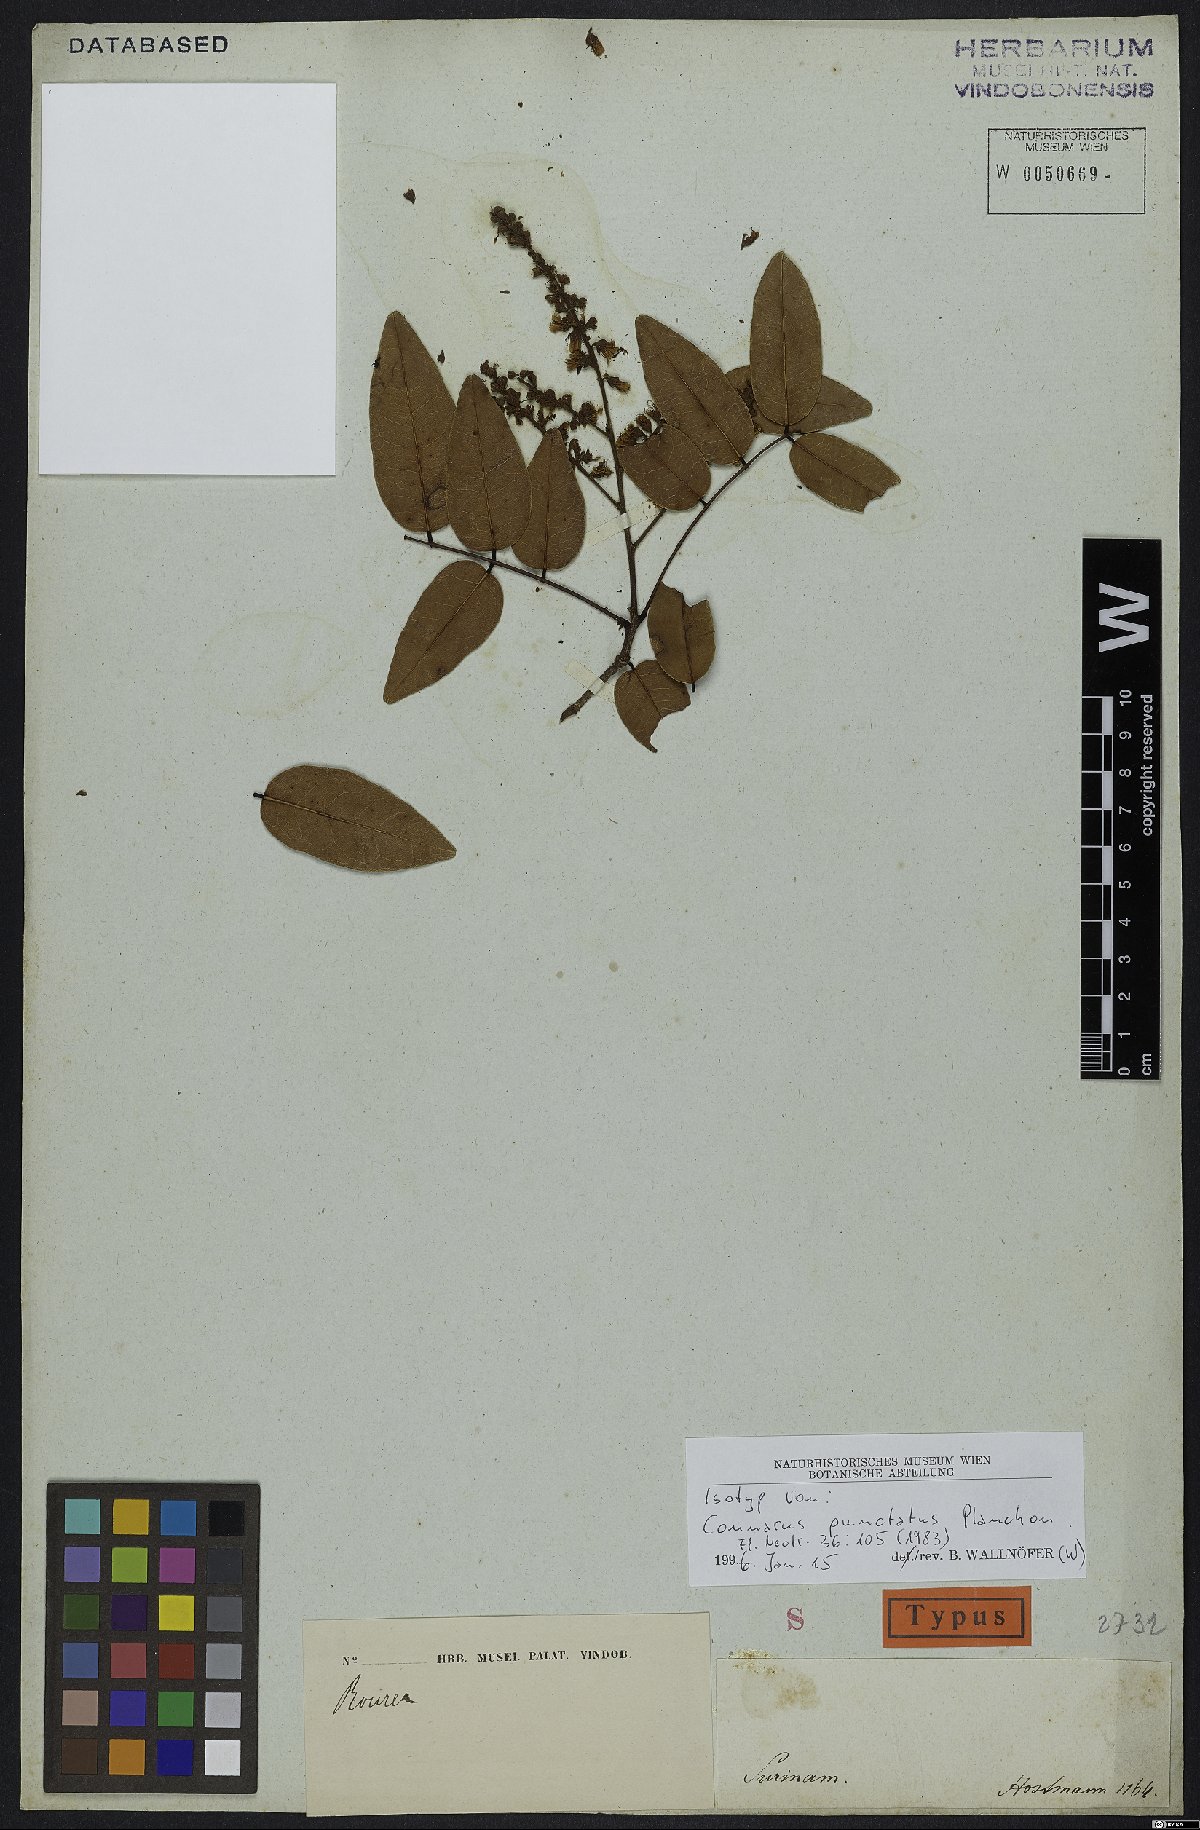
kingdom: Plantae
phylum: Tracheophyta
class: Magnoliopsida
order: Oxalidales
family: Connaraceae
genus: Connarus
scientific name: Connarus punctatus
